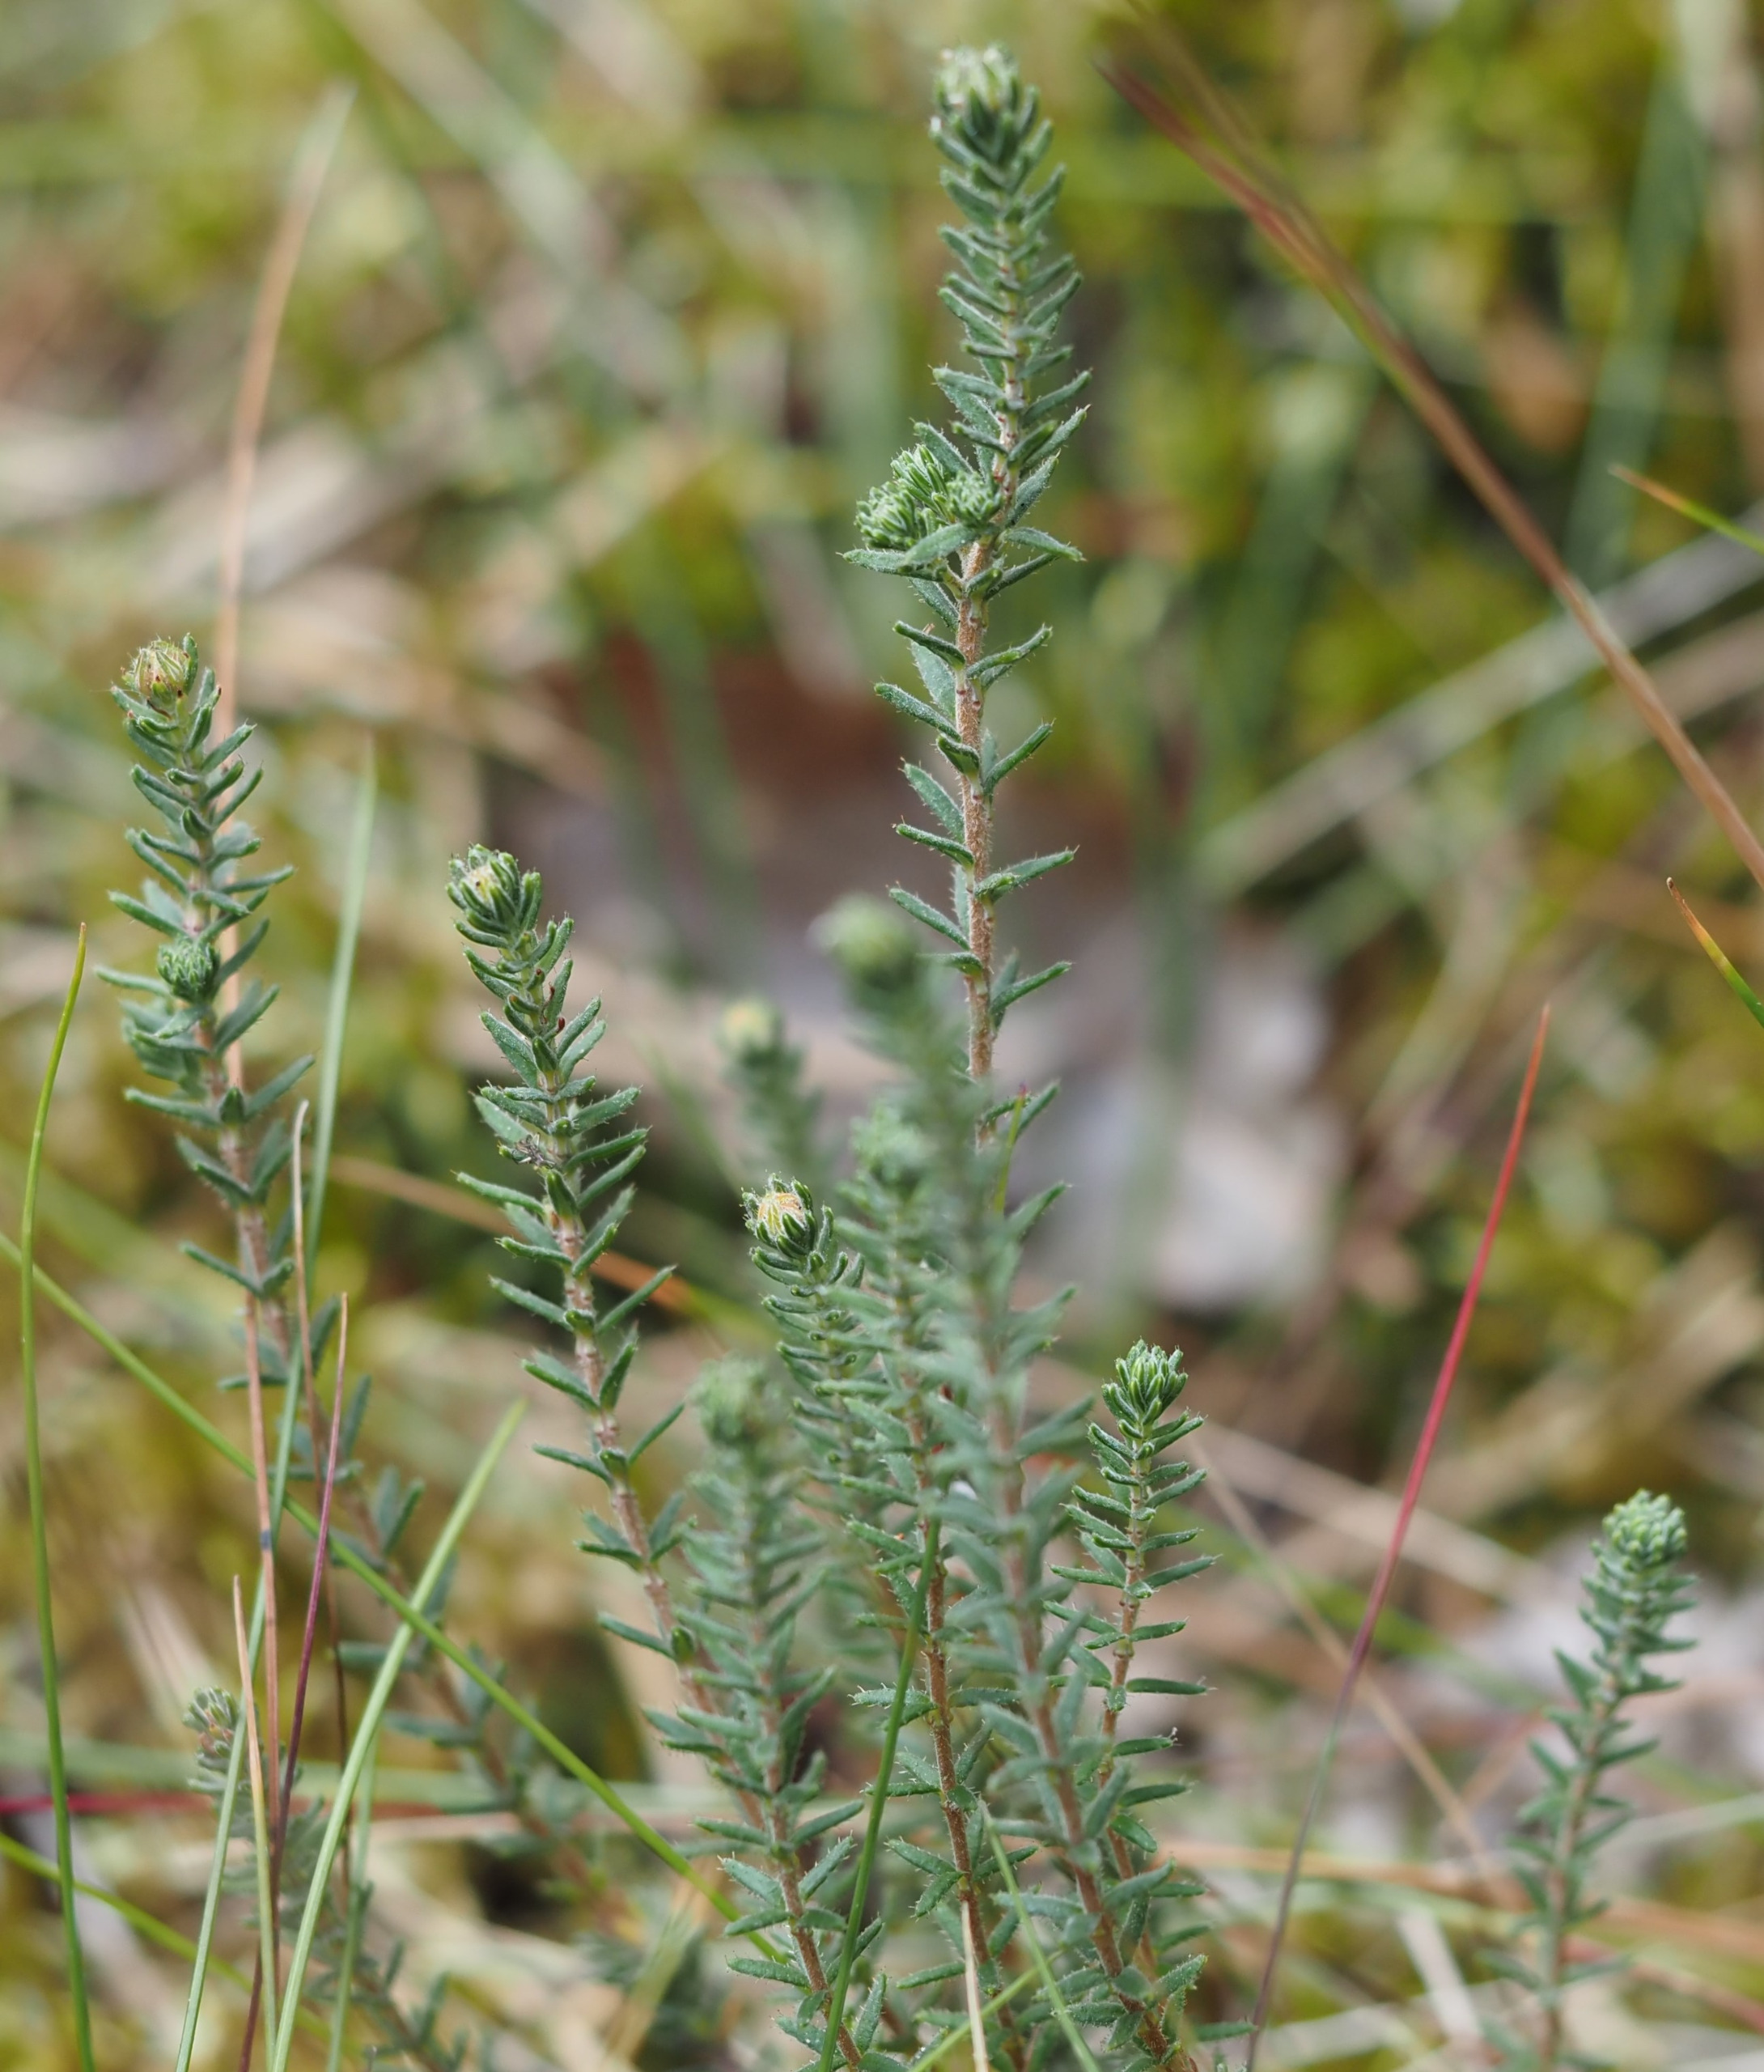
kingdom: Plantae
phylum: Tracheophyta
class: Magnoliopsida
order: Ericales
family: Ericaceae
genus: Erica
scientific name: Erica tetralix
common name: Klokkelyng
